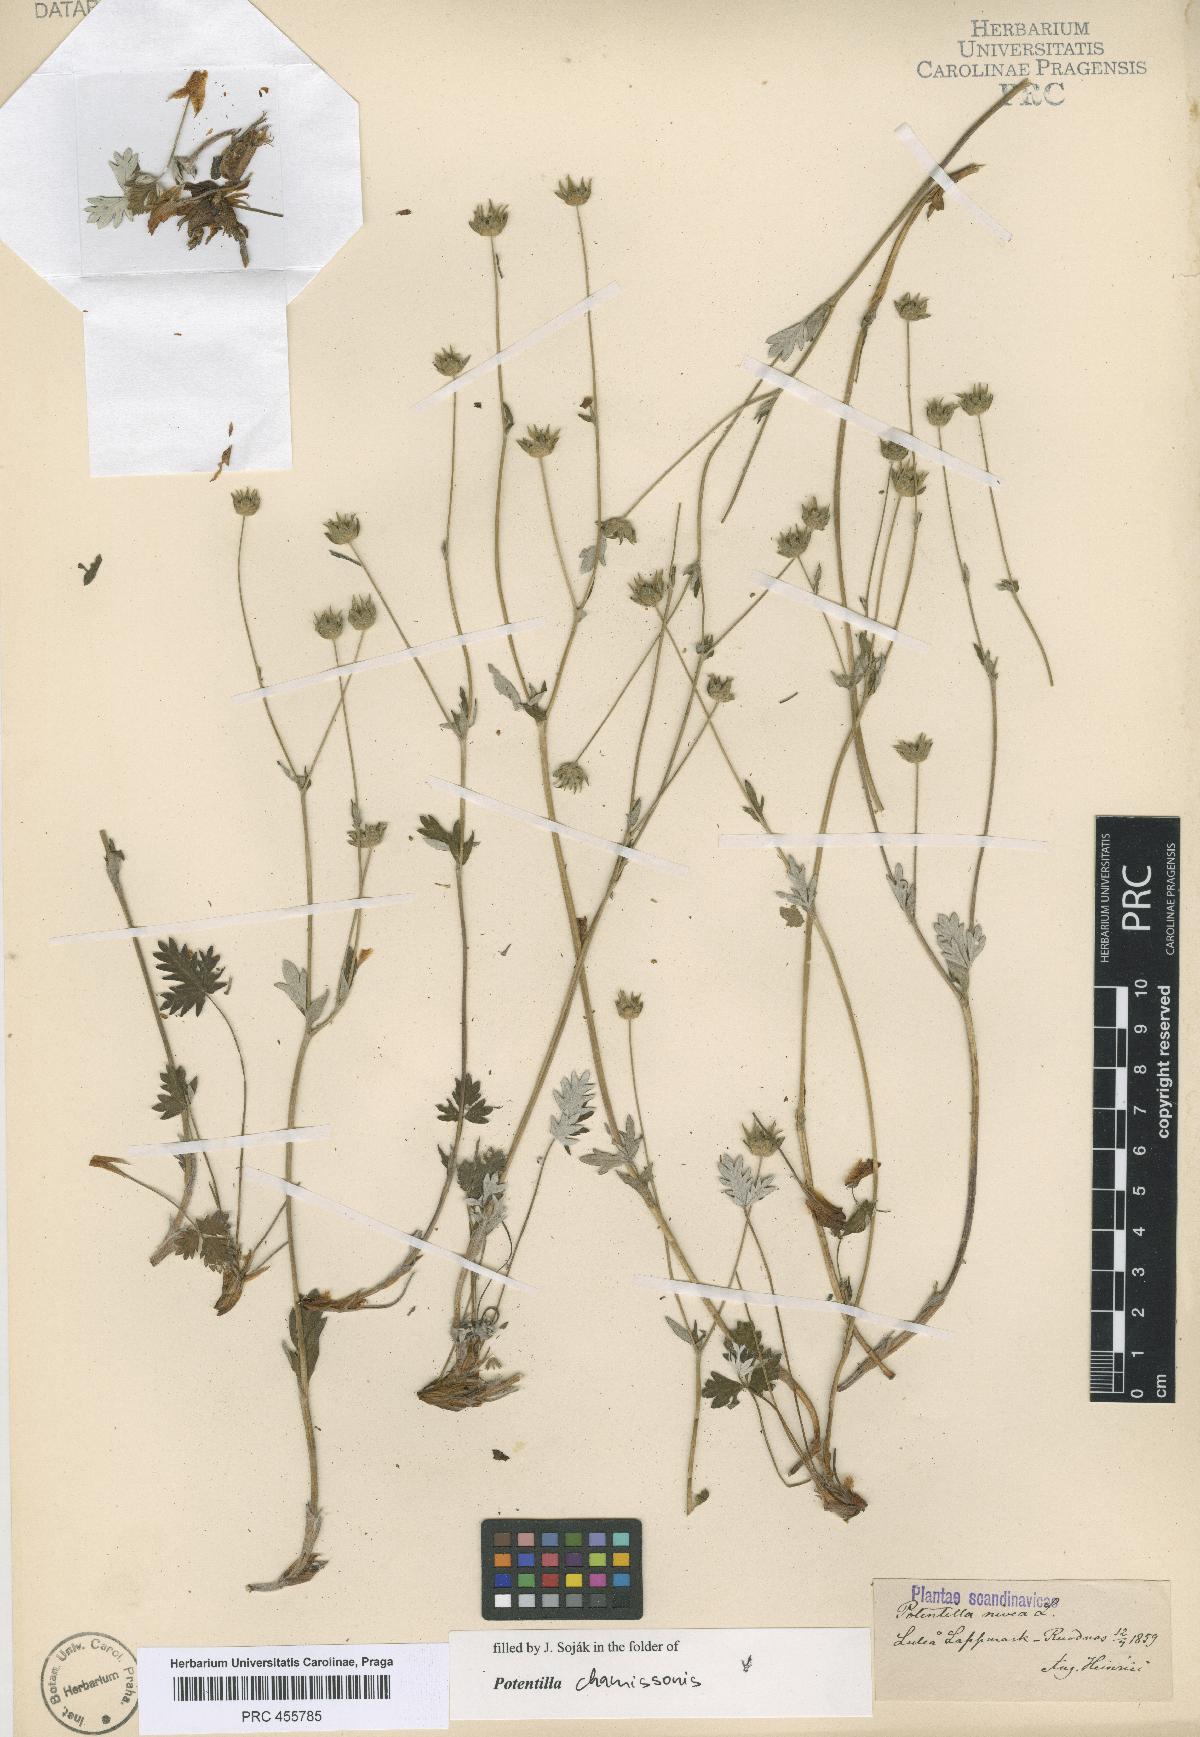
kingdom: Plantae
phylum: Tracheophyta
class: Magnoliopsida
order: Rosales
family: Rosaceae
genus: Potentilla
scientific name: Potentilla nivea
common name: Snow cinquefoil
